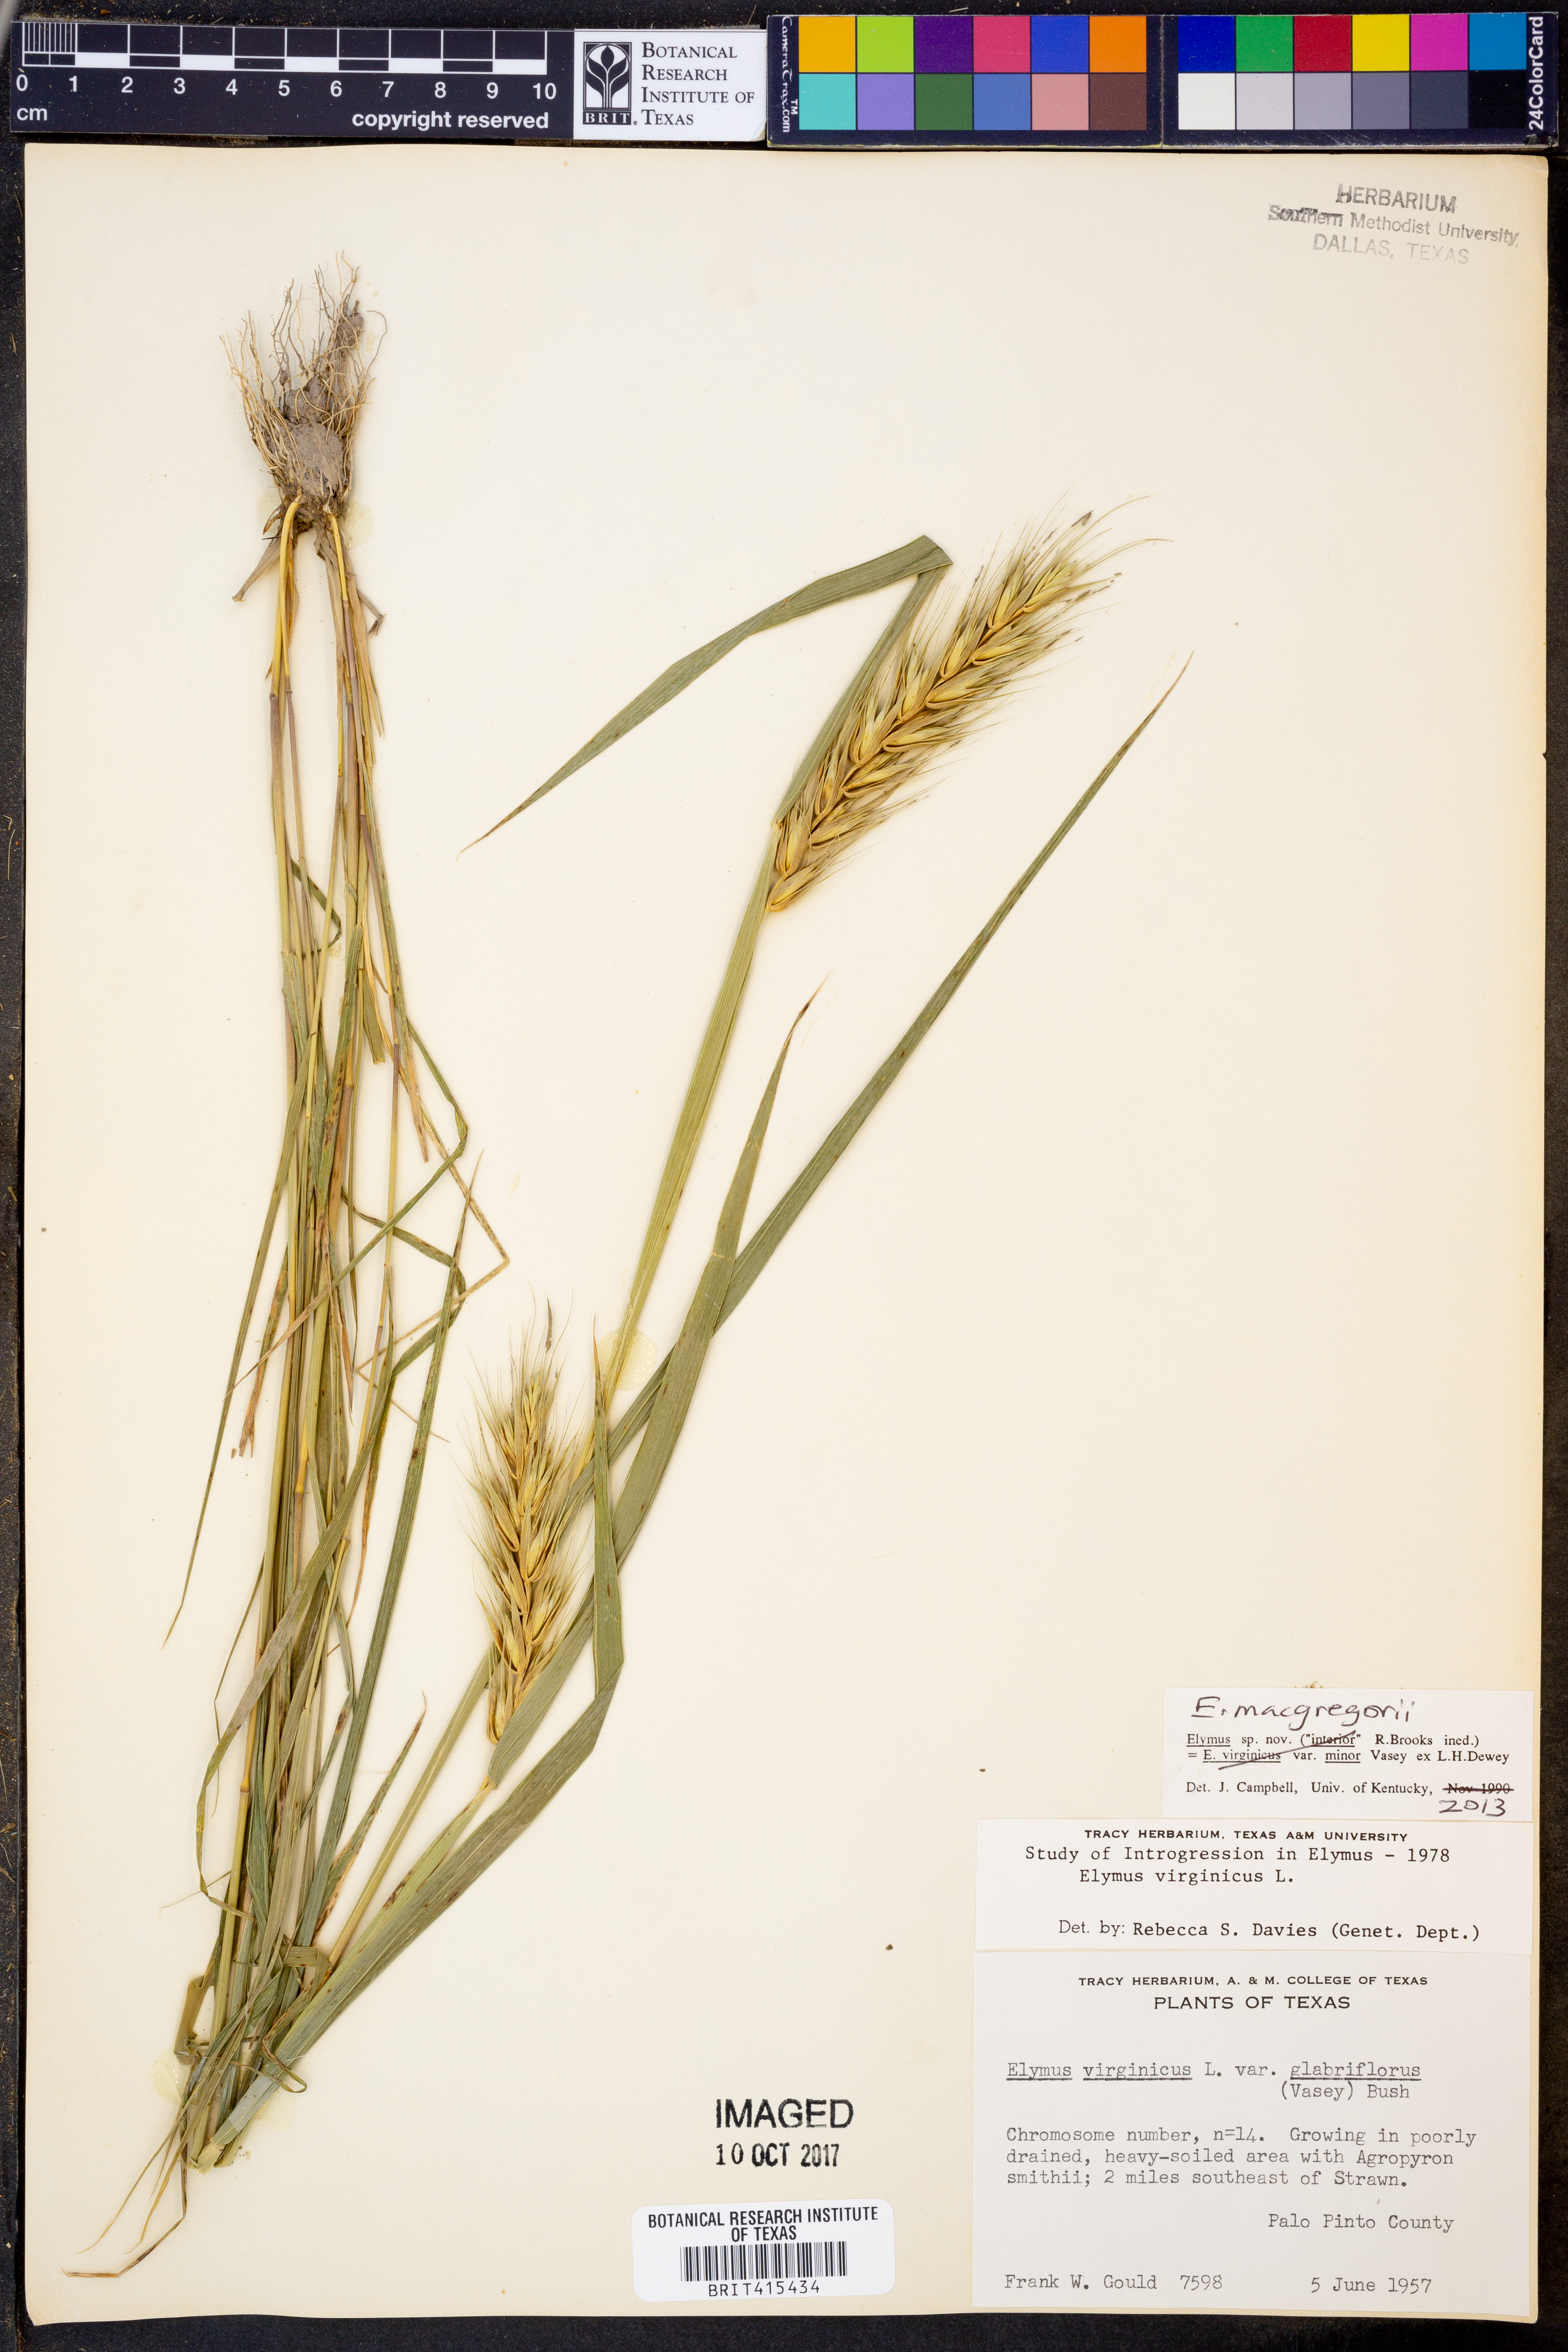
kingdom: Plantae
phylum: Tracheophyta
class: Liliopsida
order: Poales
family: Poaceae
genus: Elymus
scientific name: Elymus macgregorii
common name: Early wild rye
